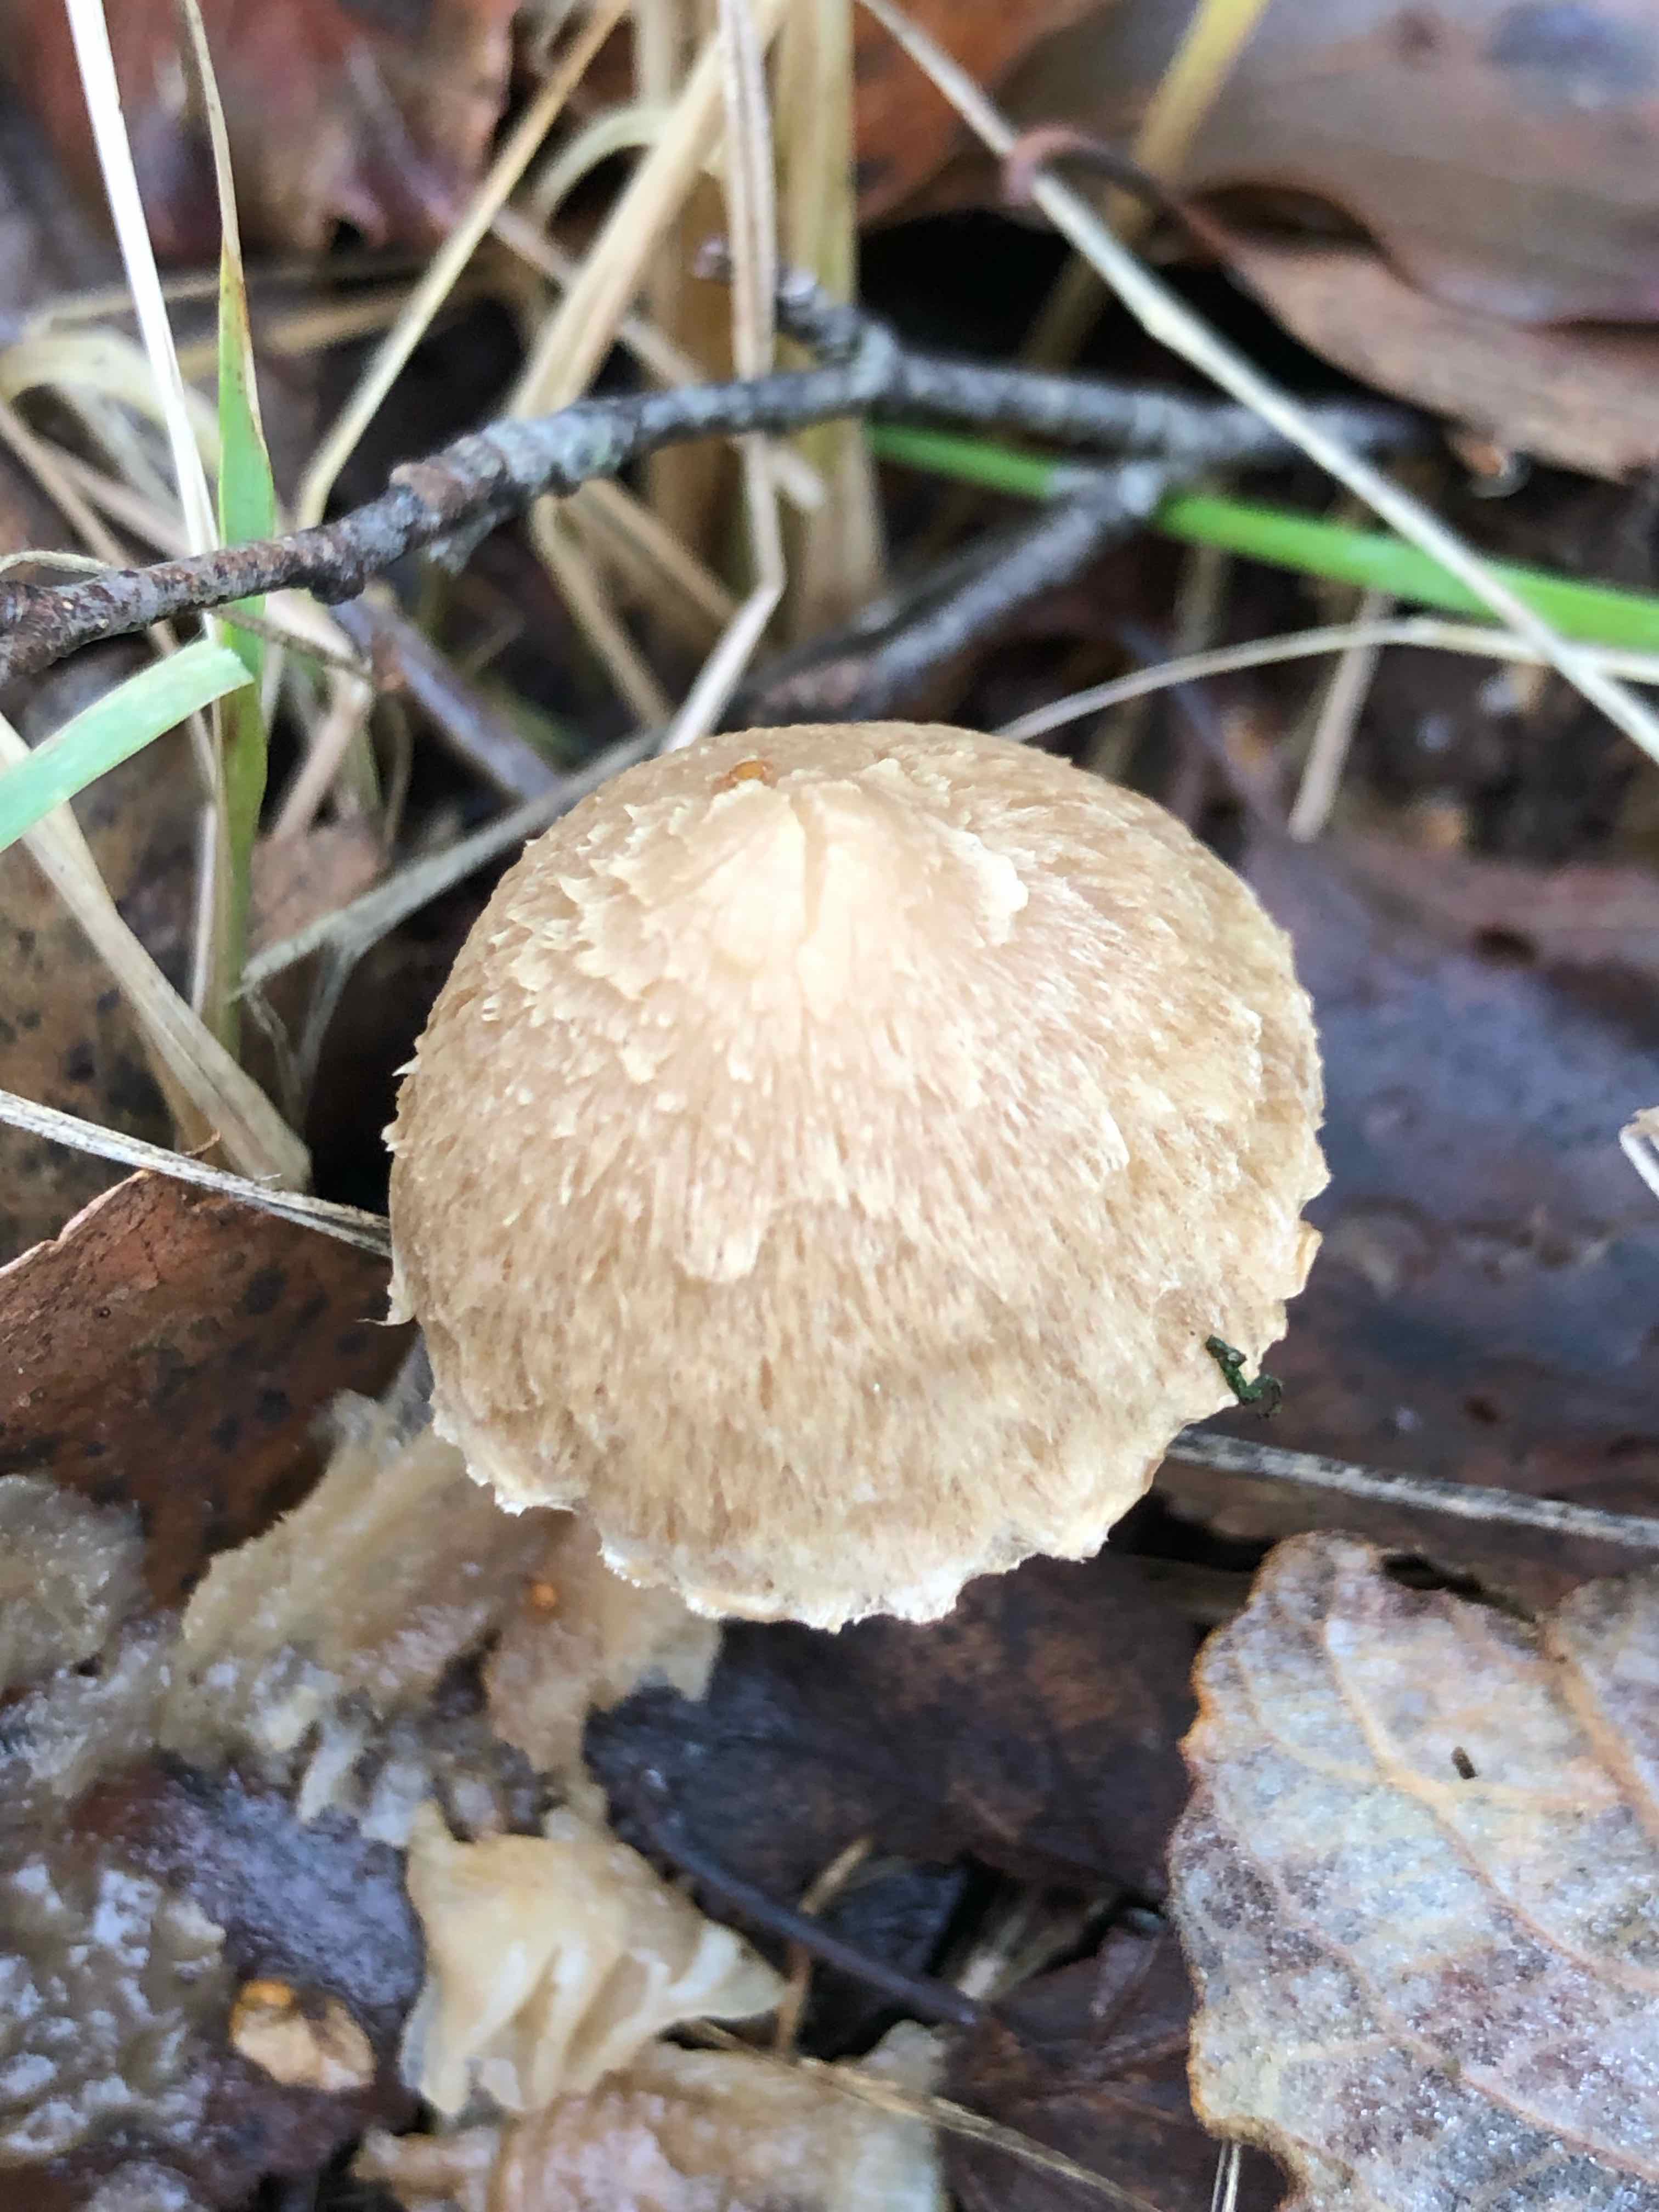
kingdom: Fungi
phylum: Basidiomycota
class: Agaricomycetes
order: Agaricales
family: Inocybaceae
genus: Inocybe
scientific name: Inocybe sindonia
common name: bleg trævlhat
